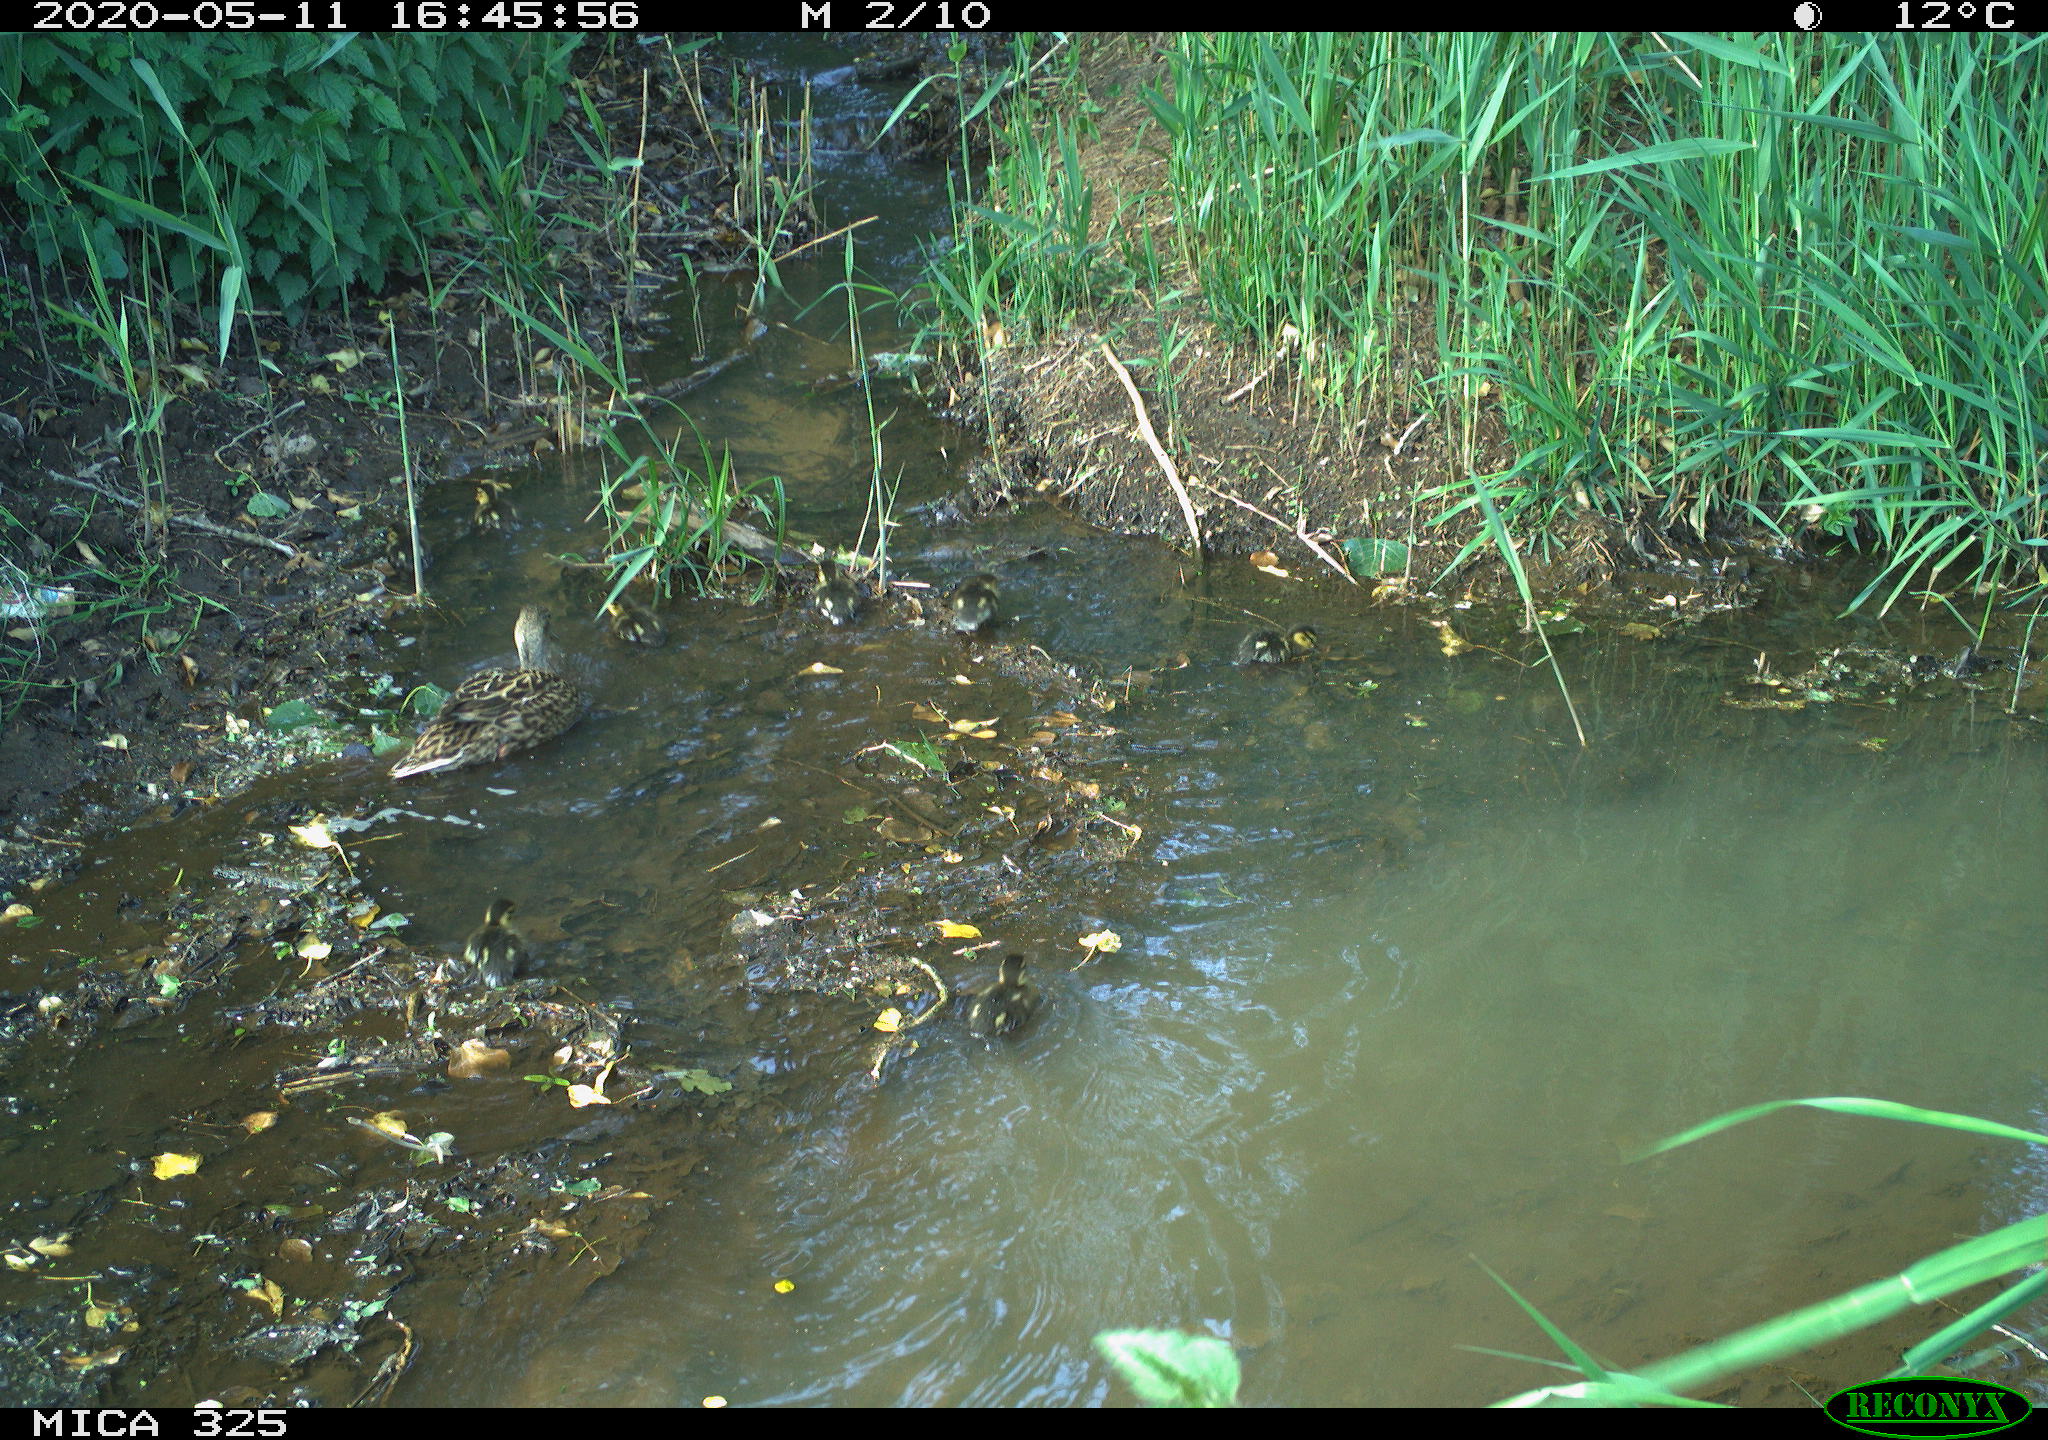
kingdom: Animalia
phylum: Chordata
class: Aves
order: Anseriformes
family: Anatidae
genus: Anas
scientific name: Anas platyrhynchos
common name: Mallard
